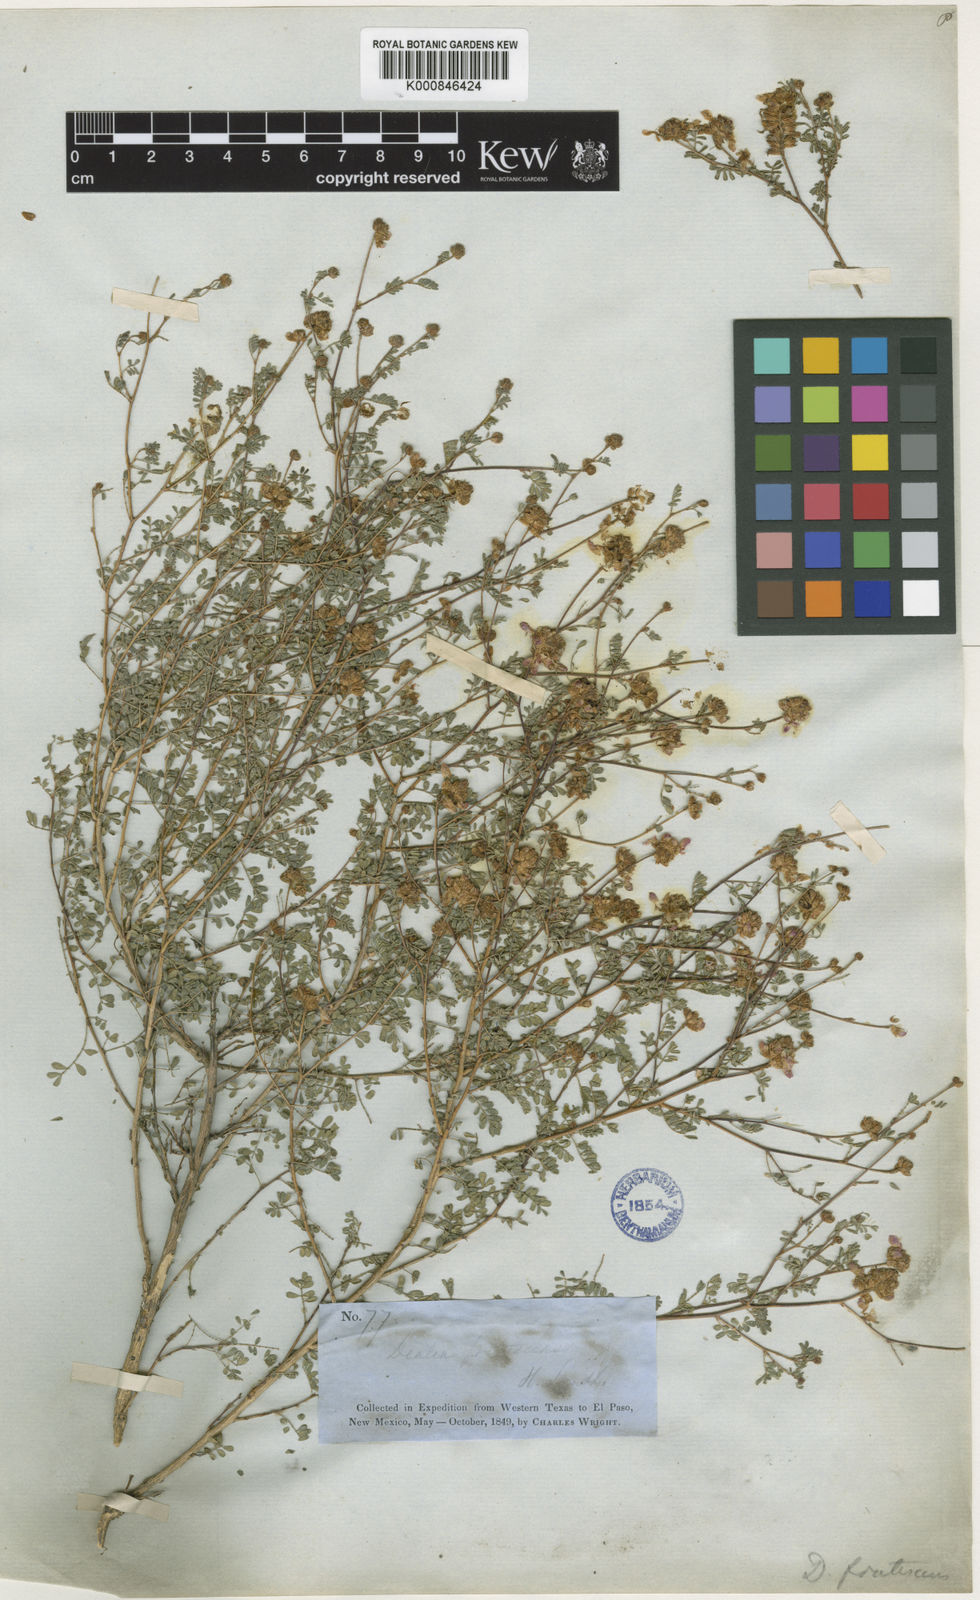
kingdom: Plantae
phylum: Tracheophyta
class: Magnoliopsida
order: Fabales
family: Fabaceae
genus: Dalea
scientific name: Dalea frutescens
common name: Black dalea
